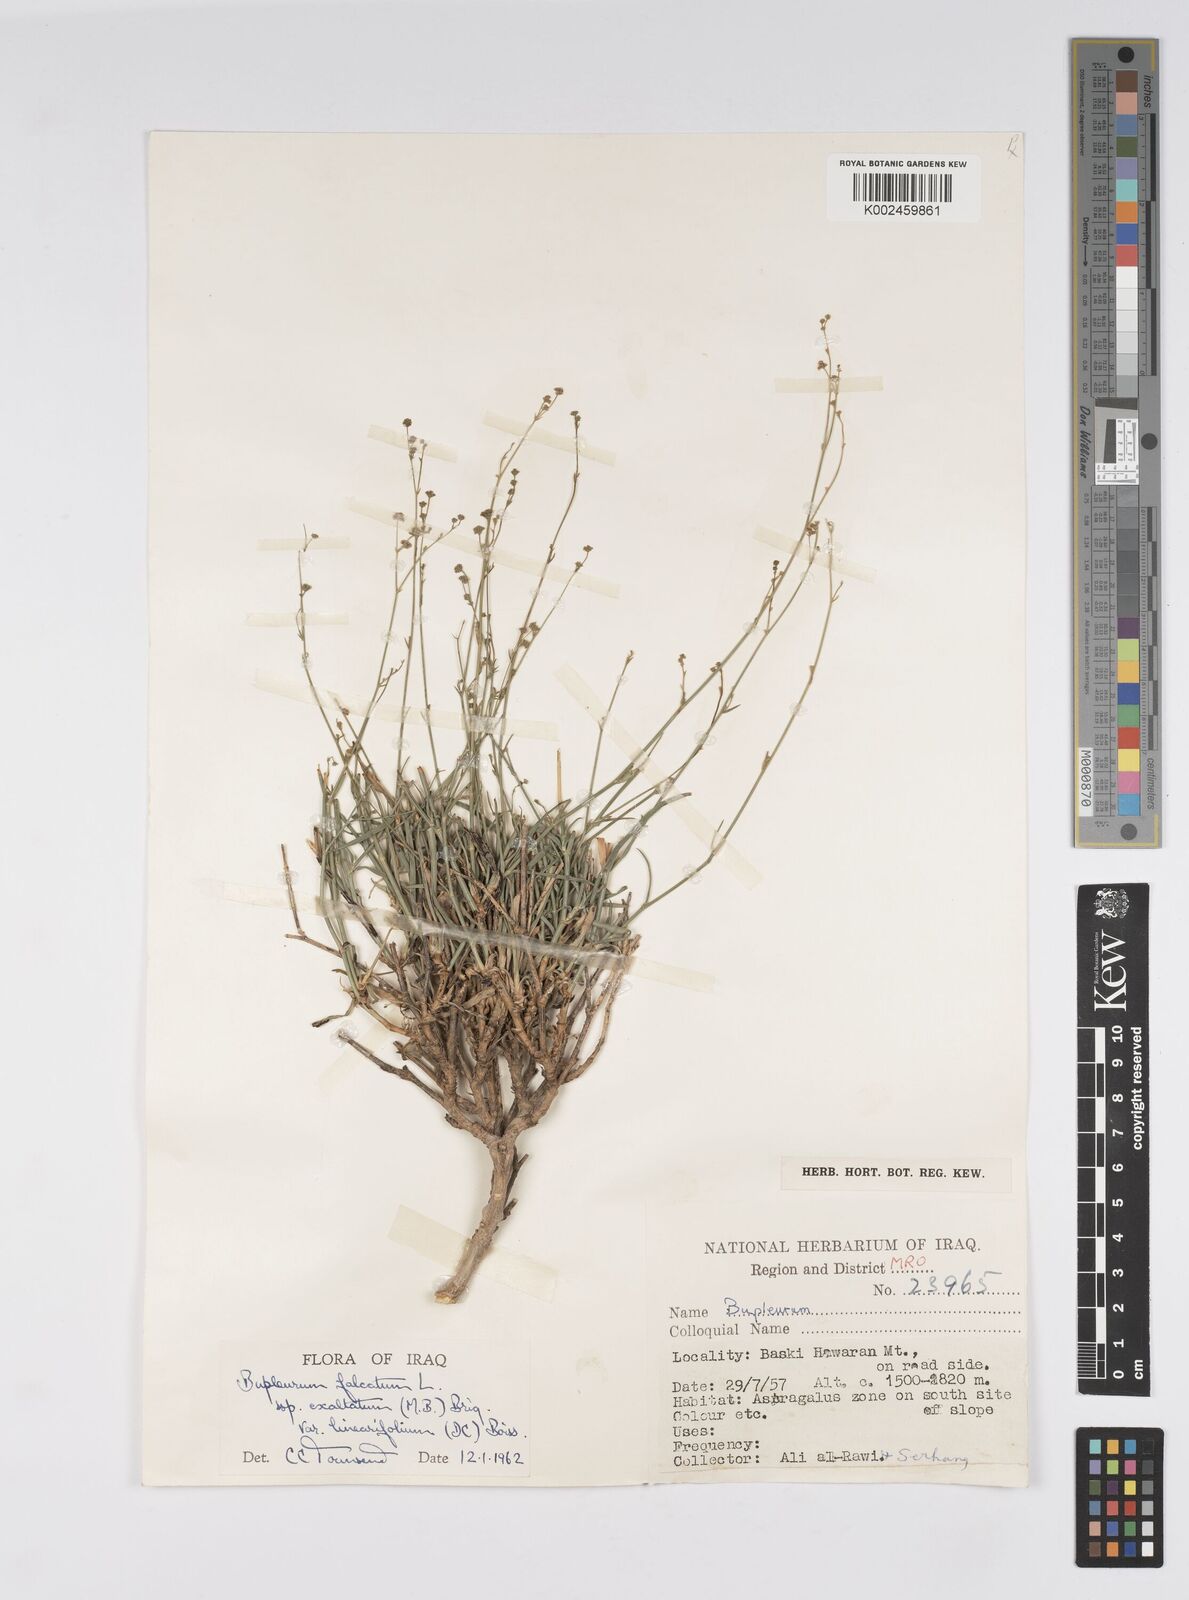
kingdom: Plantae
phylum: Tracheophyta
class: Magnoliopsida
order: Apiales
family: Apiaceae
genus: Bupleurum
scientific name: Bupleurum falcatum
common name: Sickle-leaved hare's-ear
